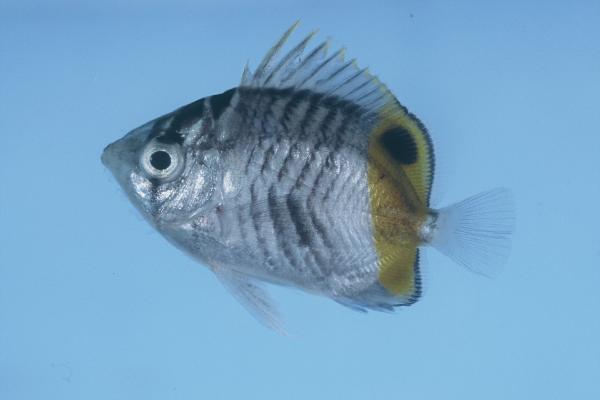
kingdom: Animalia
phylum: Chordata
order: Perciformes
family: Chaetodontidae
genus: Chaetodon
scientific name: Chaetodon madagaskariensis
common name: Madagascar butterflyfish
